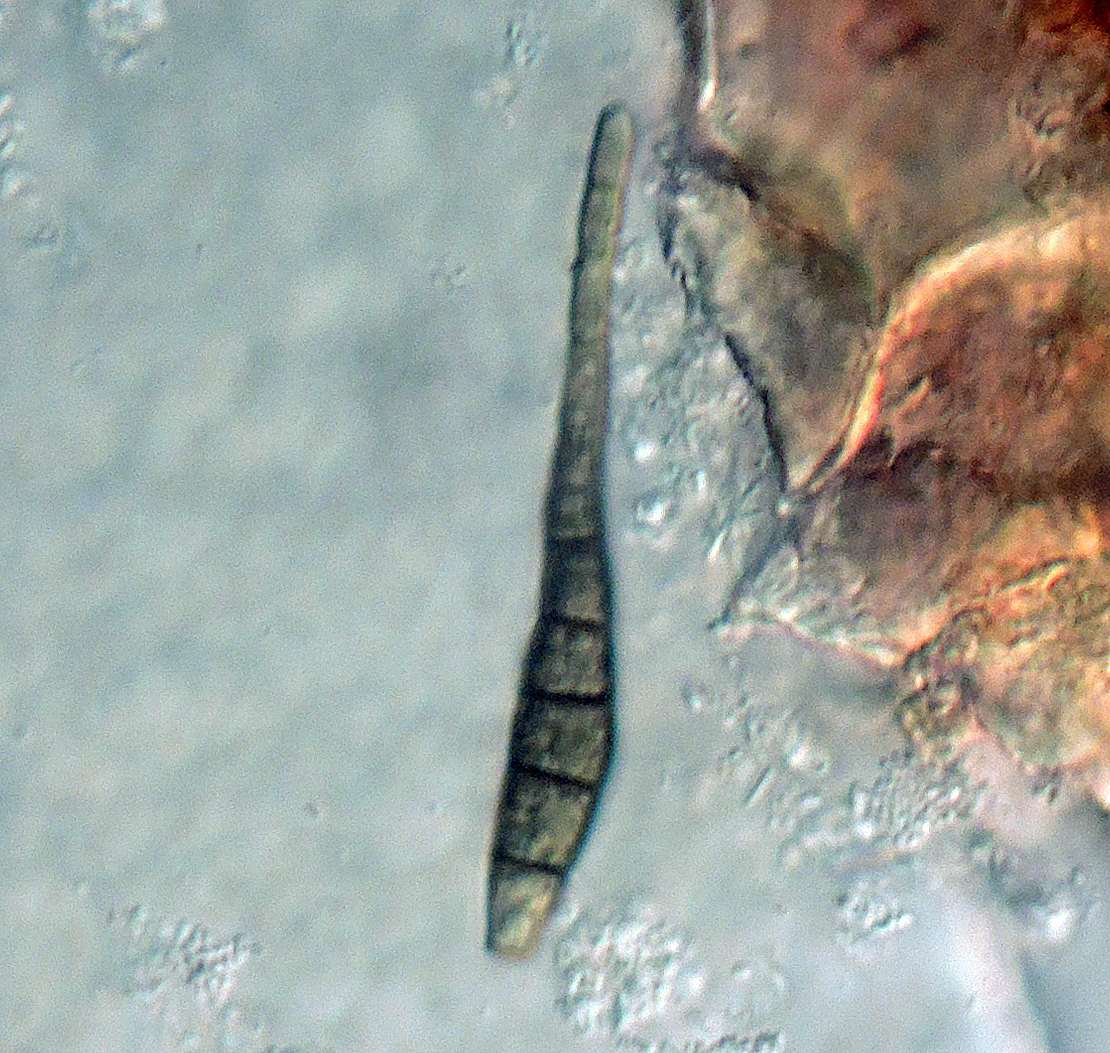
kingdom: Fungi
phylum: Ascomycota
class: Dothideomycetes
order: Pleosporales
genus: Sporidesmium
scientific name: Sporidesmium
